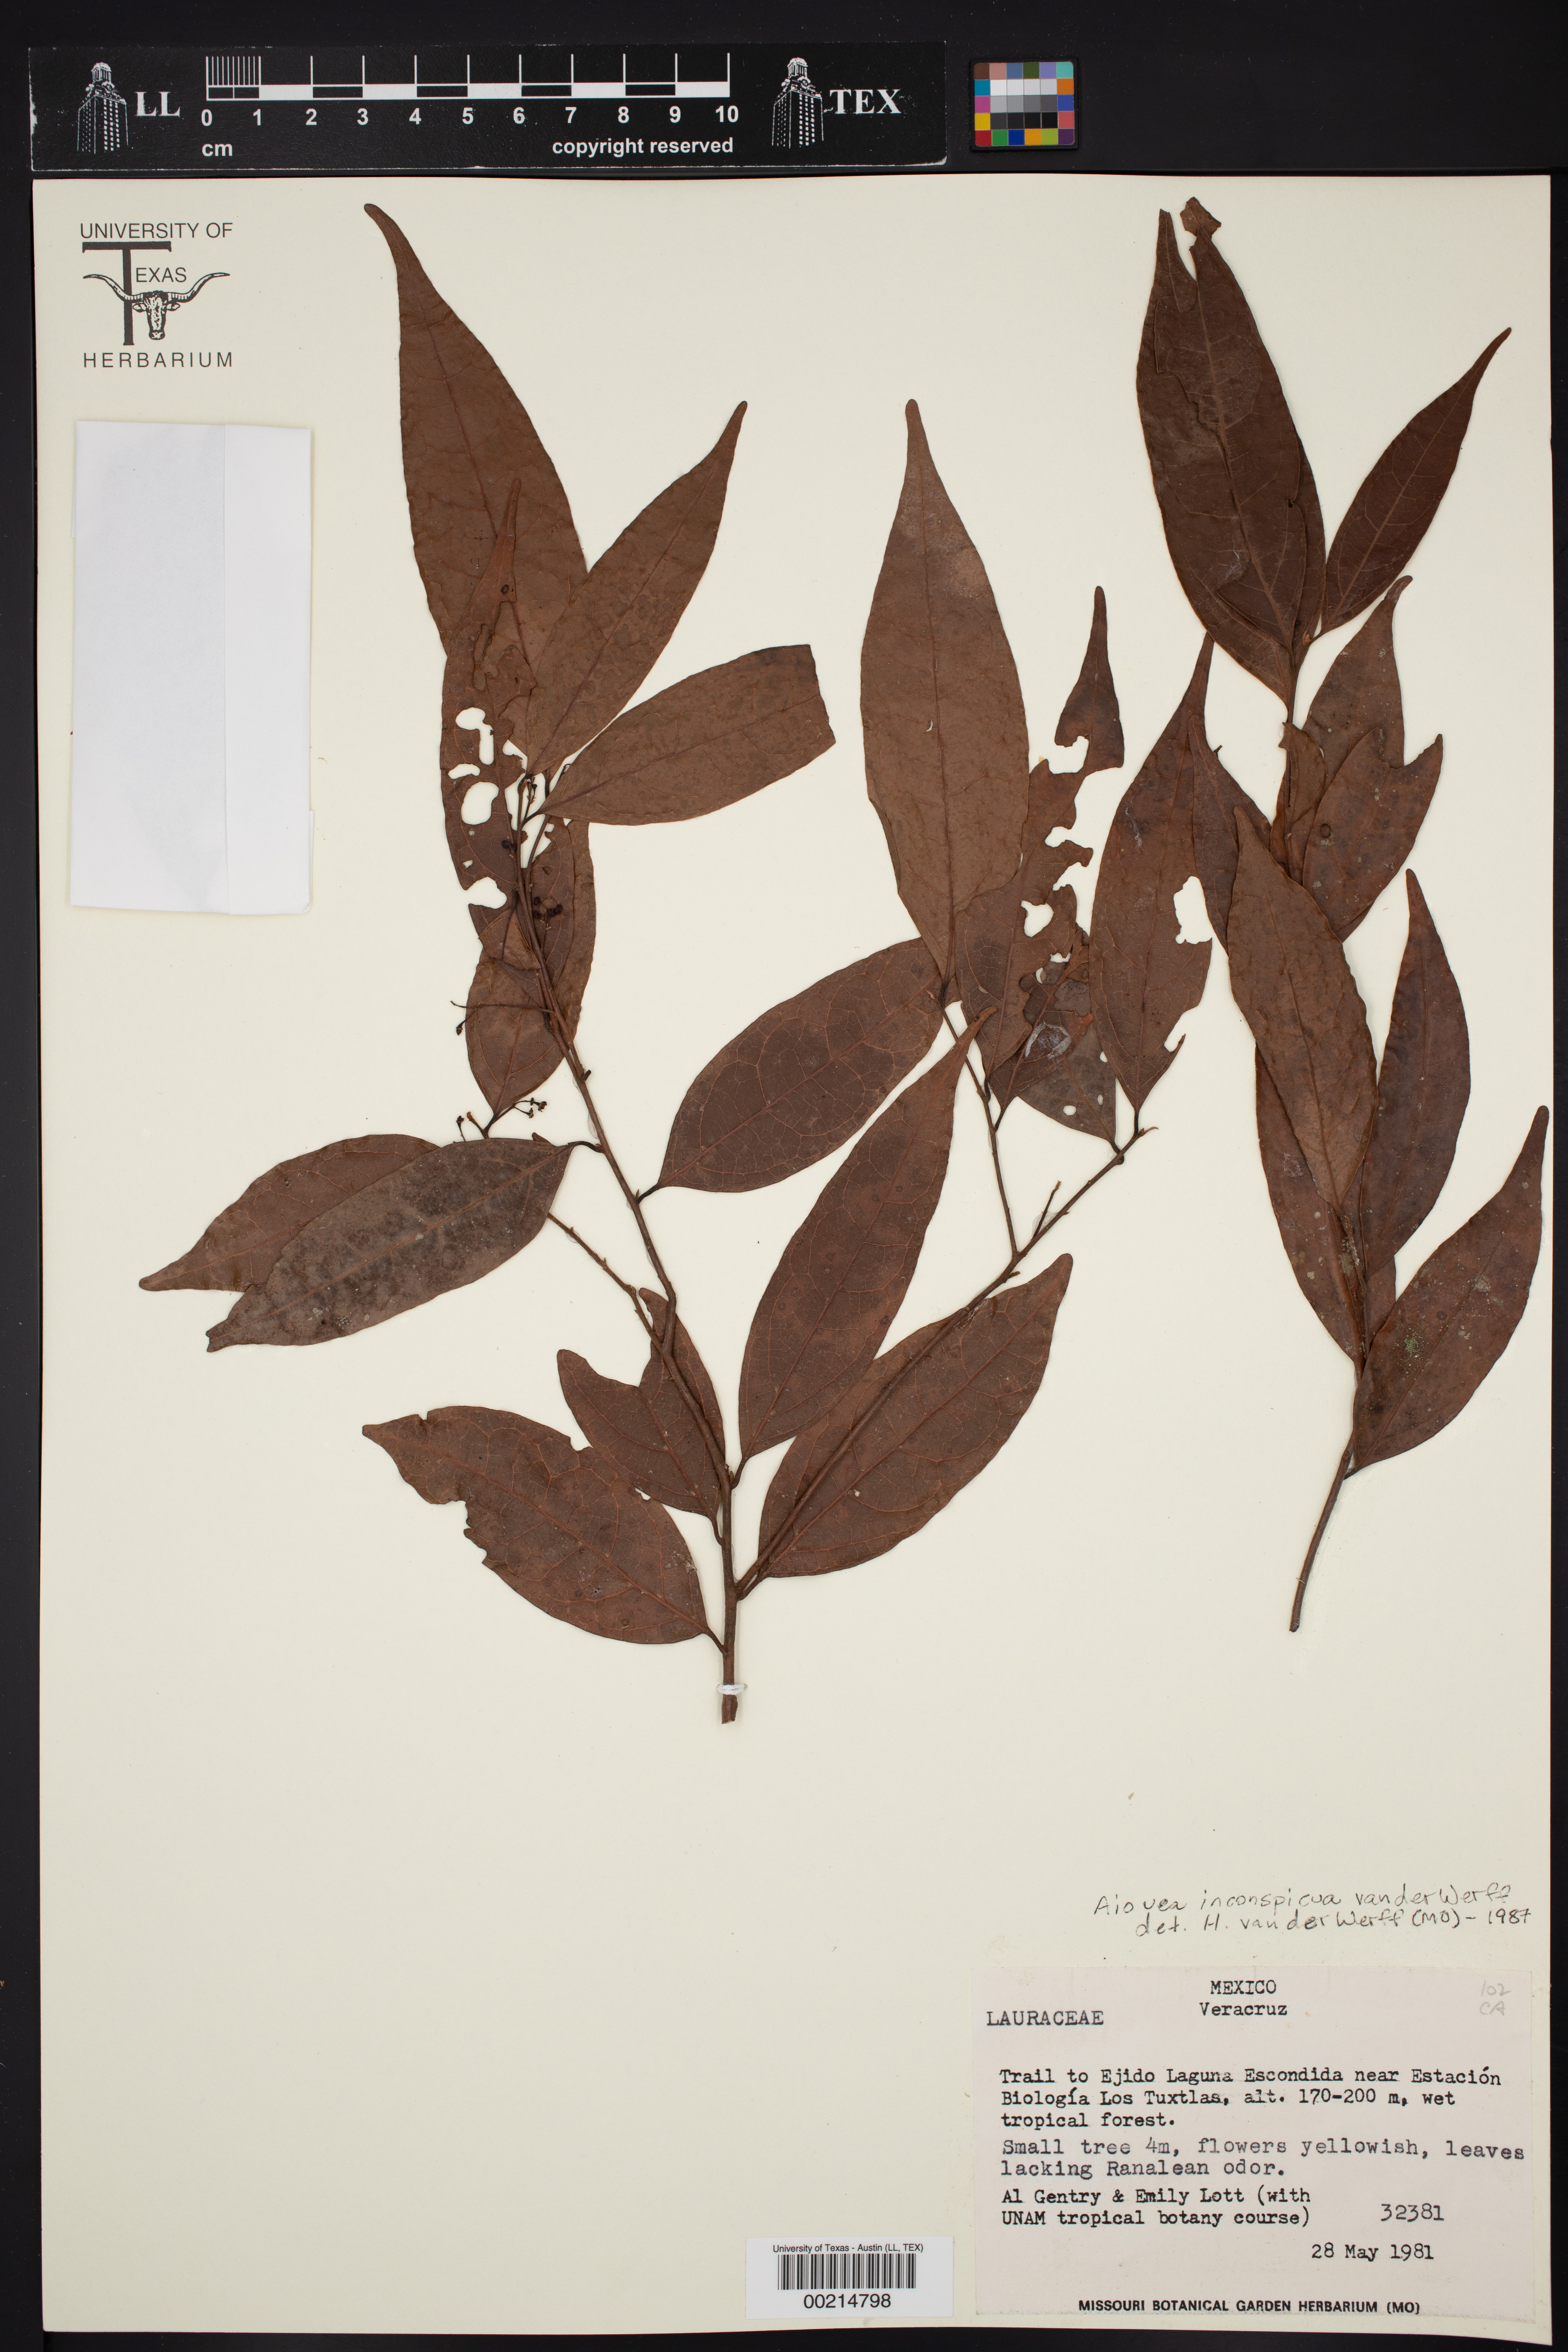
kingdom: Plantae
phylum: Tracheophyta
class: Magnoliopsida
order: Laurales
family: Lauraceae
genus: Damburneya
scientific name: Damburneya inconspicua
